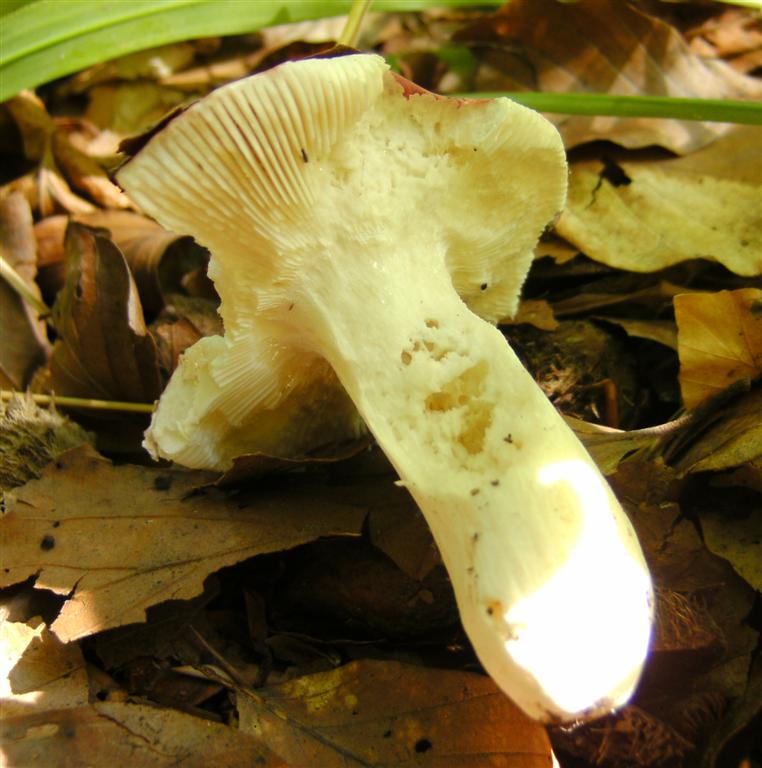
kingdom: Fungi
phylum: Basidiomycota
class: Agaricomycetes
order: Russulales
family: Russulaceae
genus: Russula
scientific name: Russula rosea
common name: fastkødet skørhat
